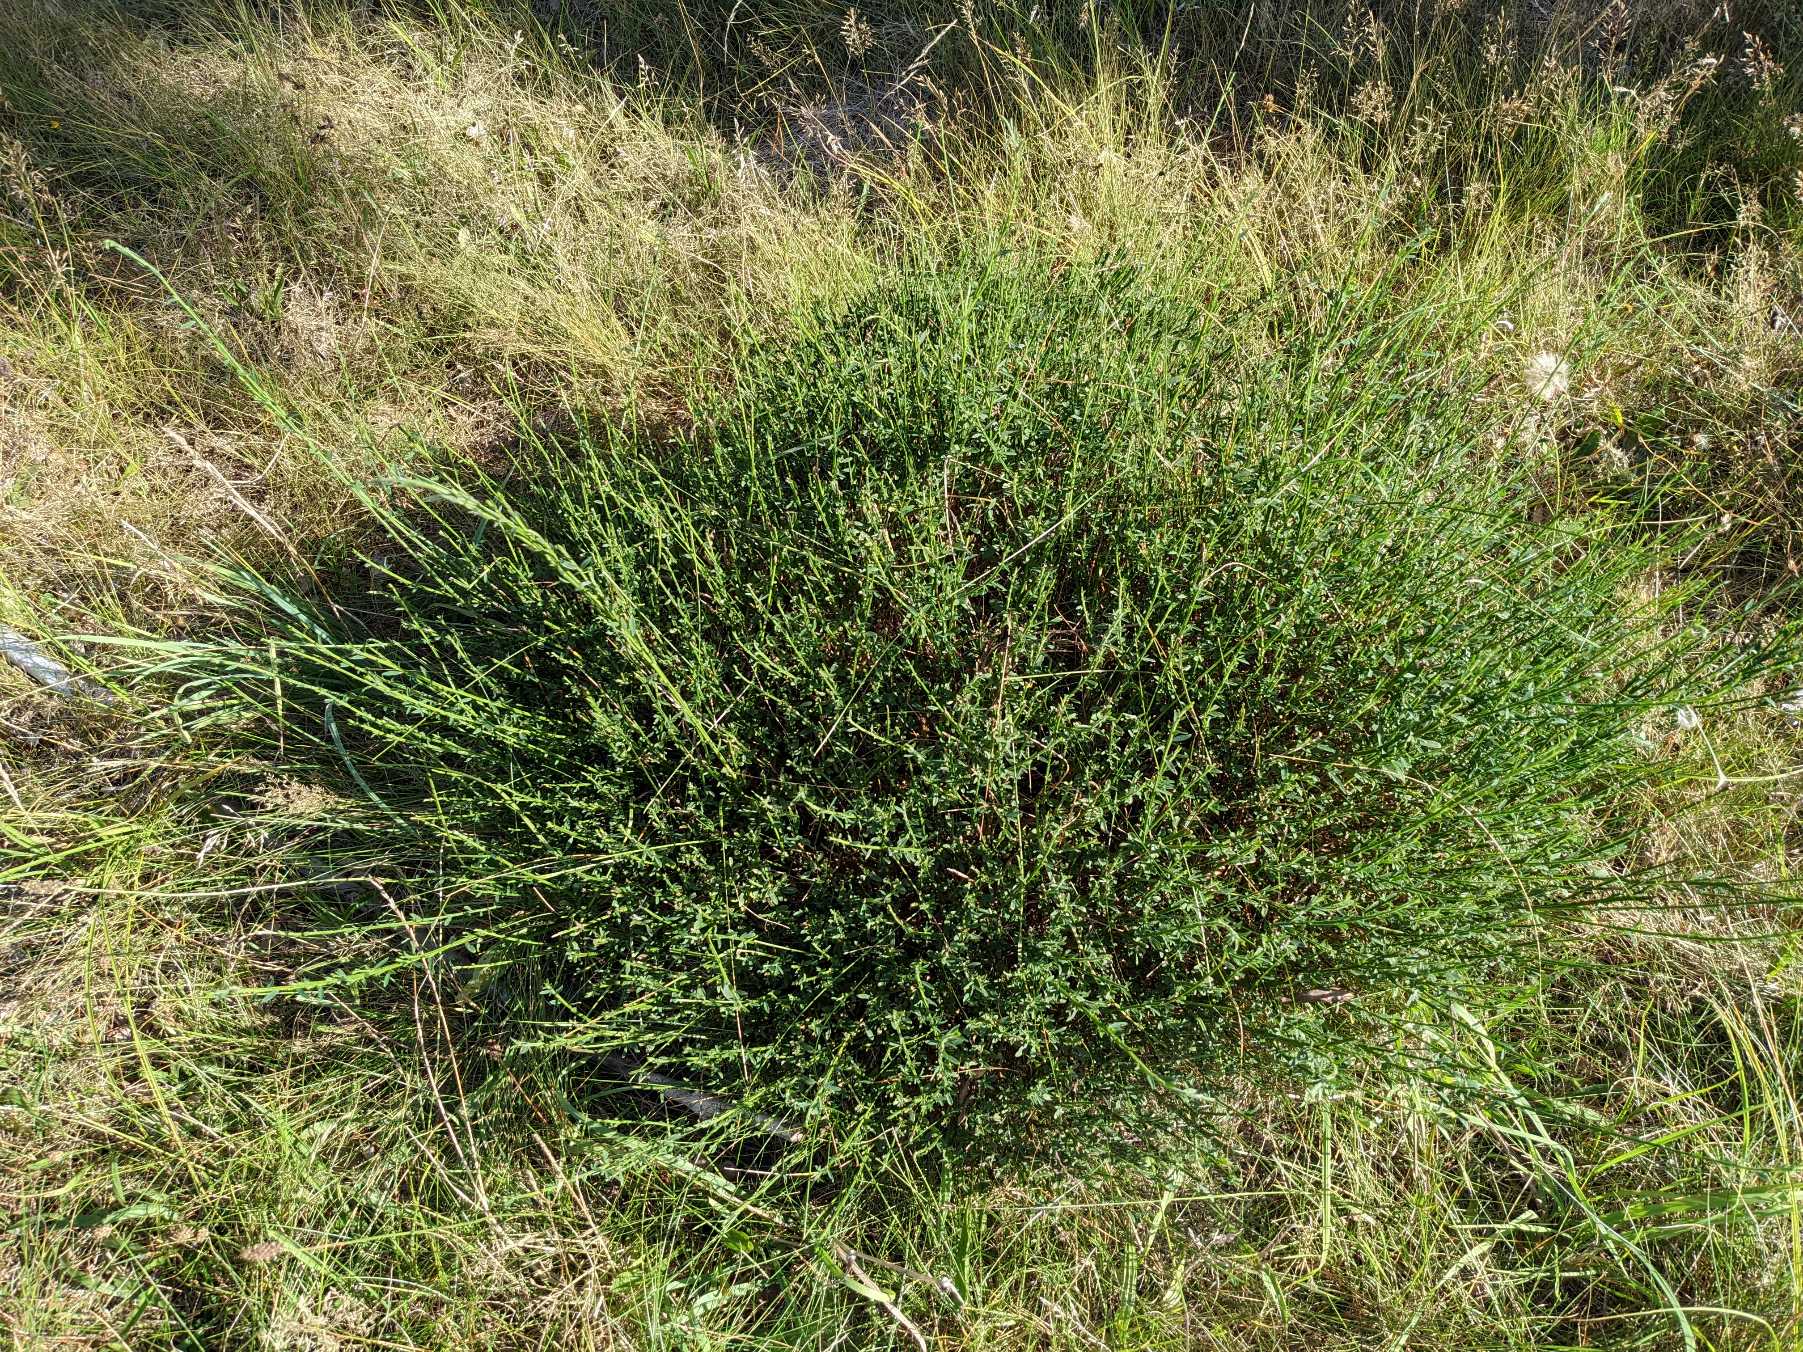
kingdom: Plantae
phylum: Tracheophyta
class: Magnoliopsida
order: Fabales
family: Fabaceae
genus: Cytisus
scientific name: Cytisus scoparius
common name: Almindelig gyvel
